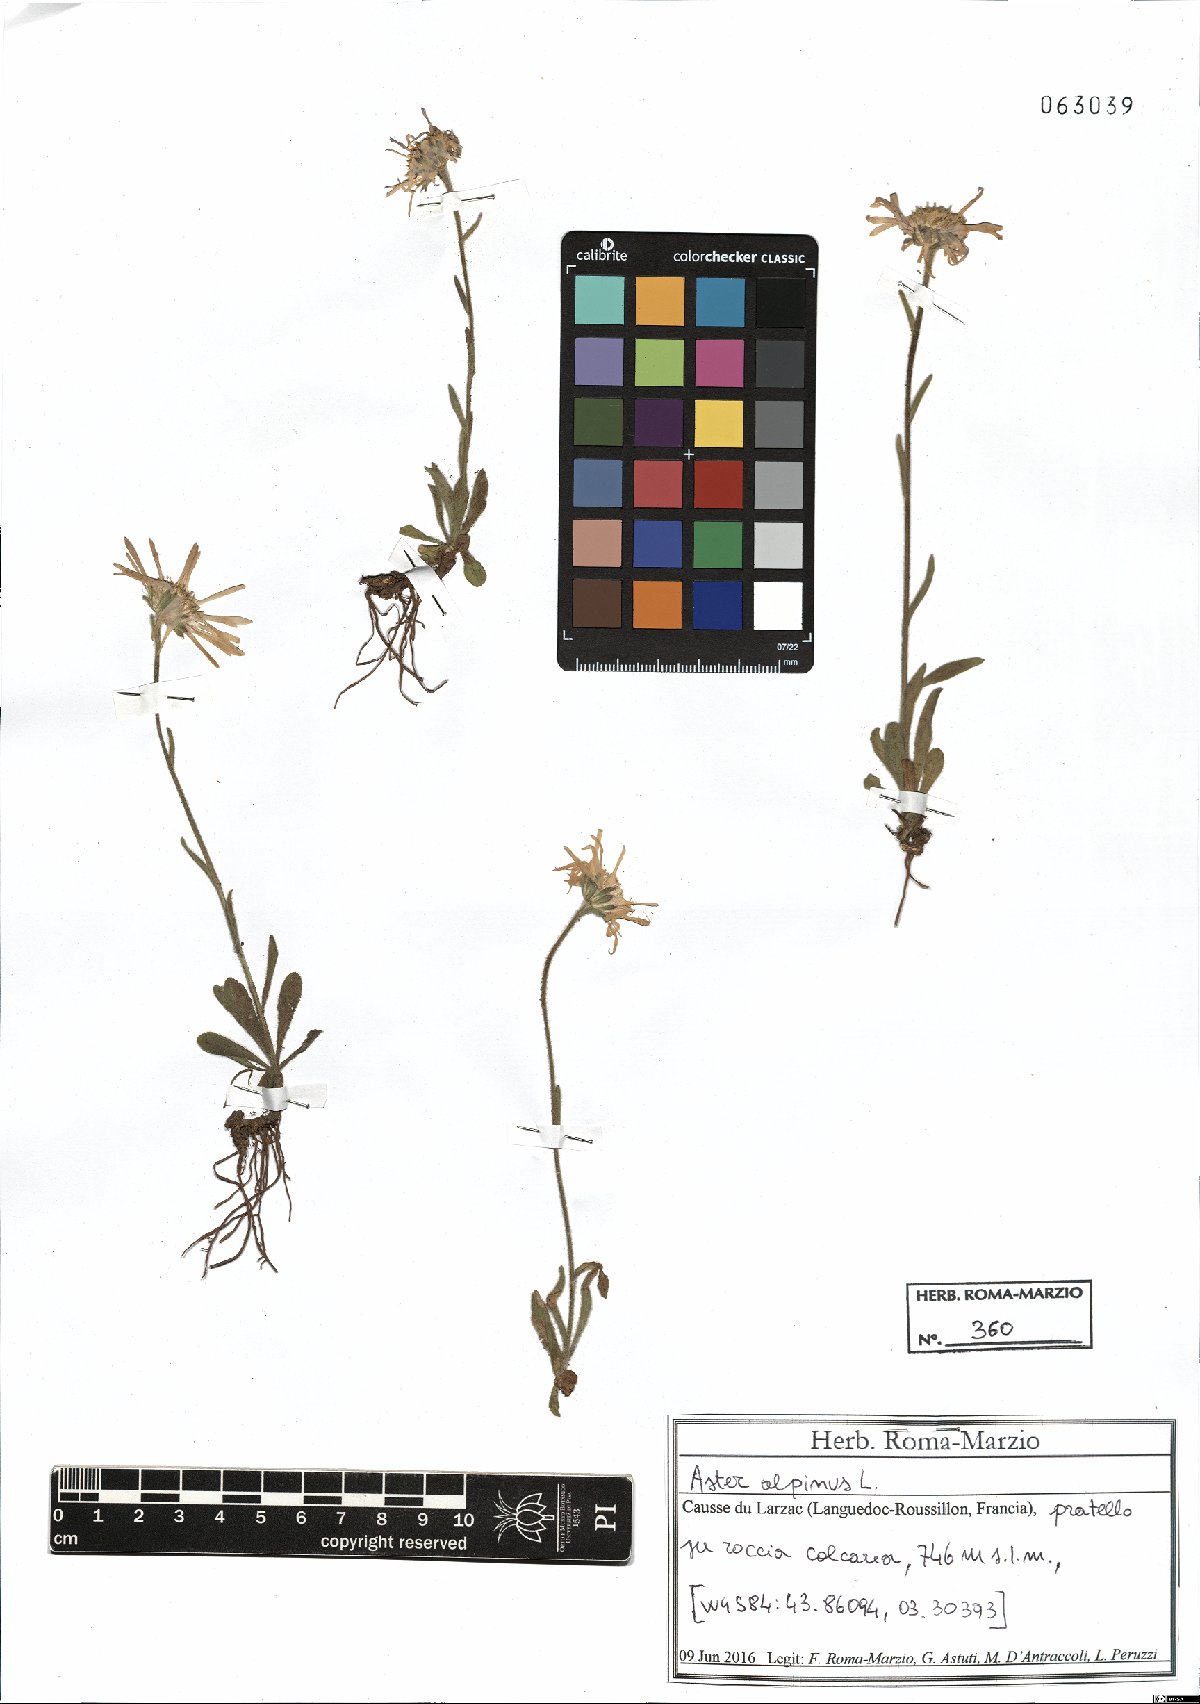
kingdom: Plantae
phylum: Tracheophyta
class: Magnoliopsida
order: Asterales
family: Asteraceae
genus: Aster
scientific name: Aster alpinus
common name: Alpine aster
